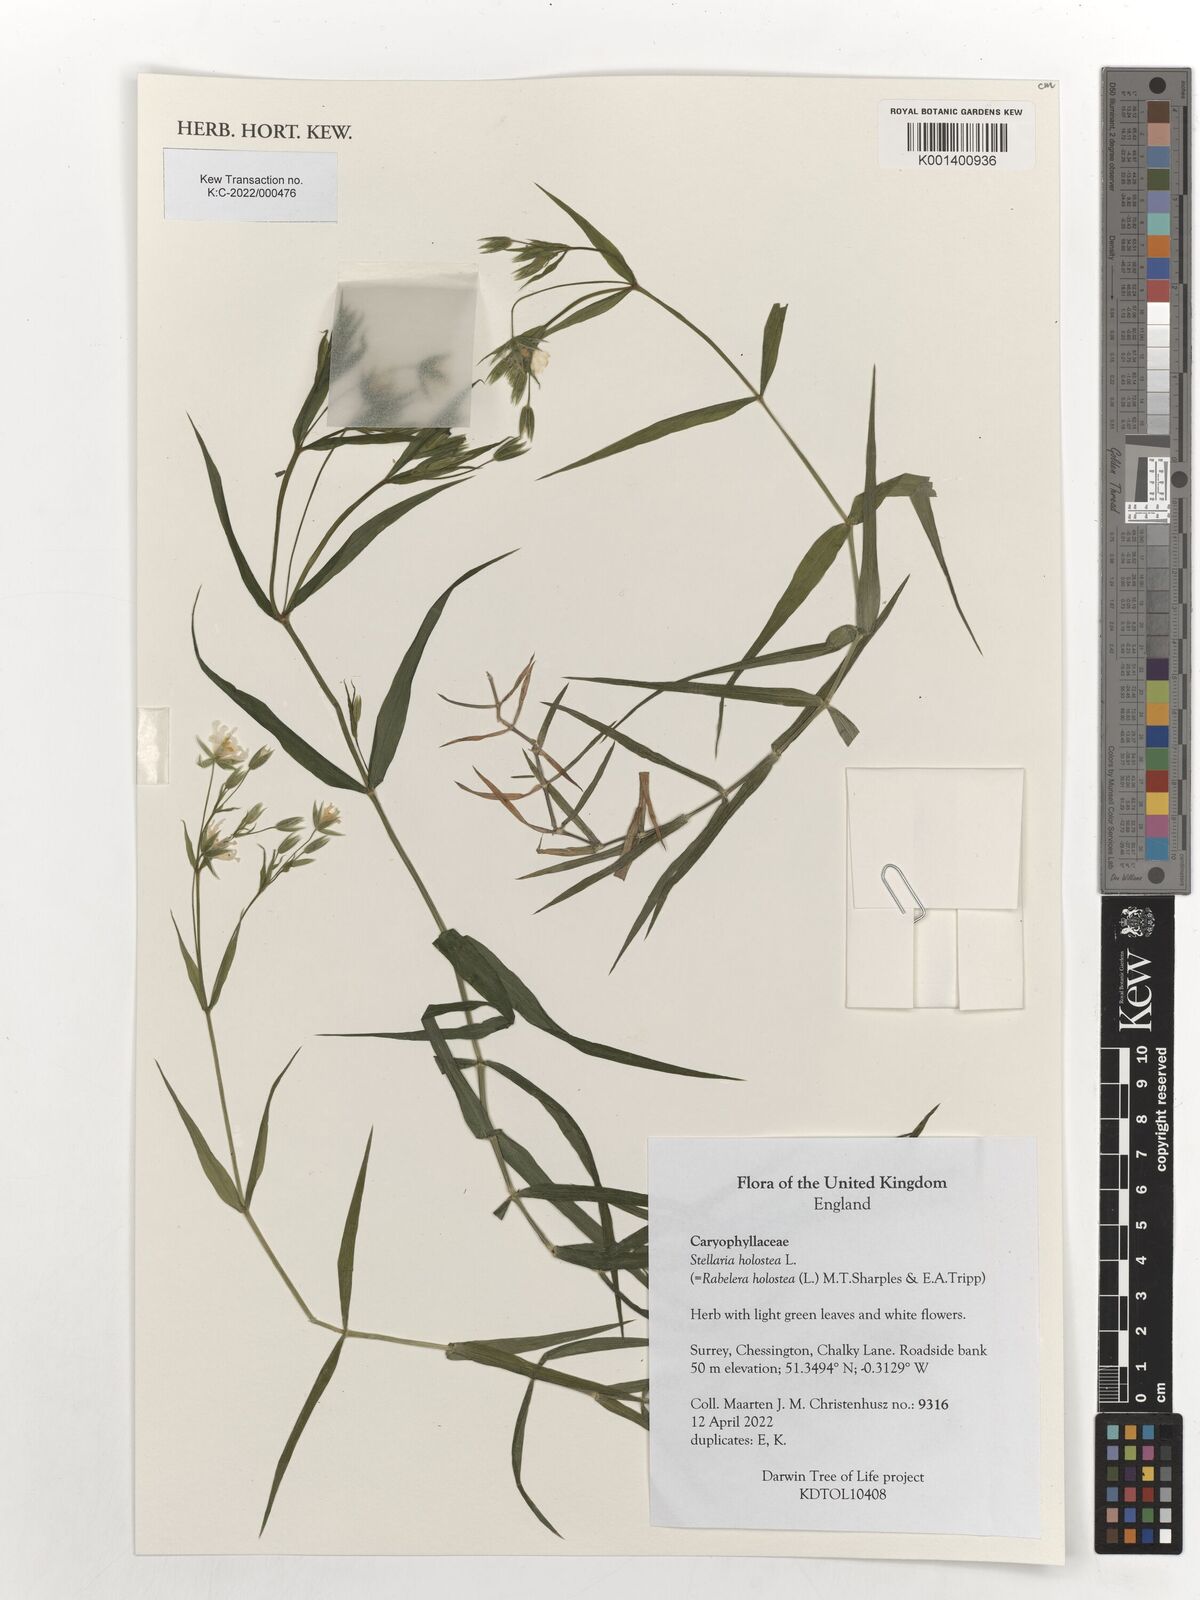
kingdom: Plantae
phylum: Tracheophyta
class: Magnoliopsida
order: Caryophyllales
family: Caryophyllaceae
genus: Rabelera
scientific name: Rabelera holostea
